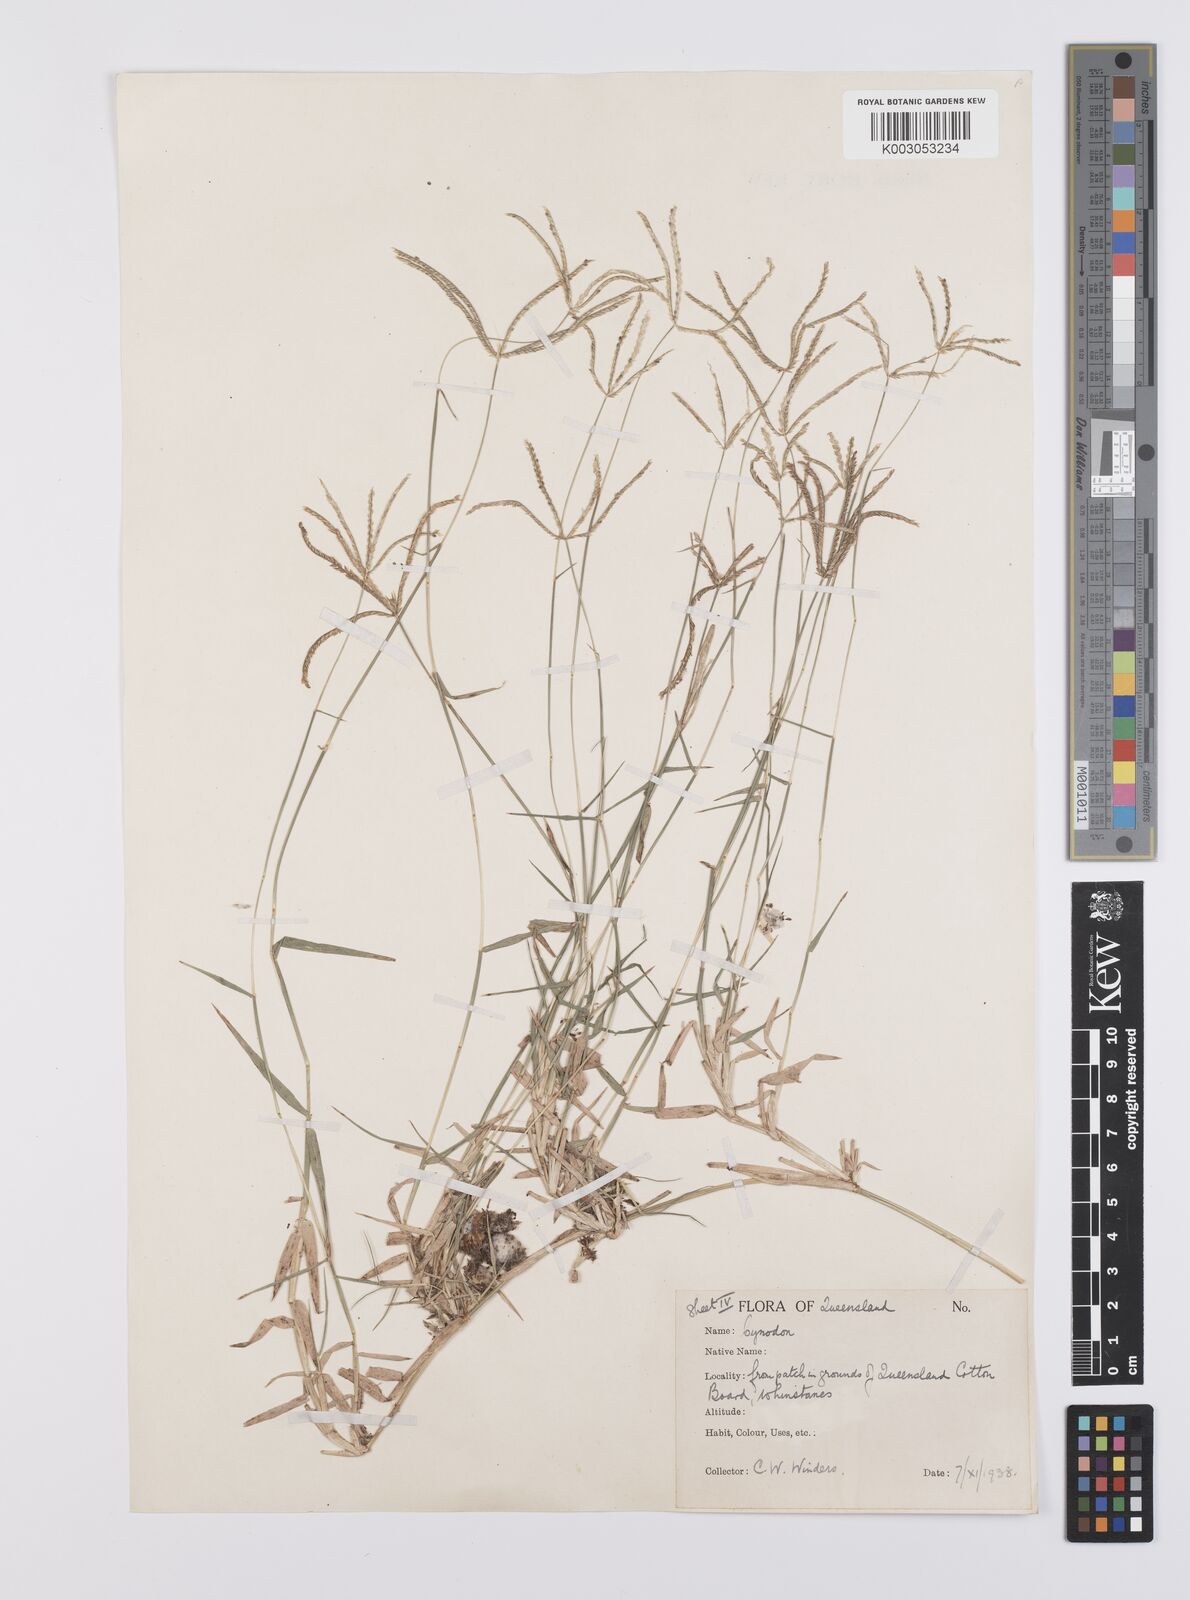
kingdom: Plantae
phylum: Tracheophyta
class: Liliopsida
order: Poales
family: Poaceae
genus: Cynodon
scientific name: Cynodon dactylon
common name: Bermuda grass
